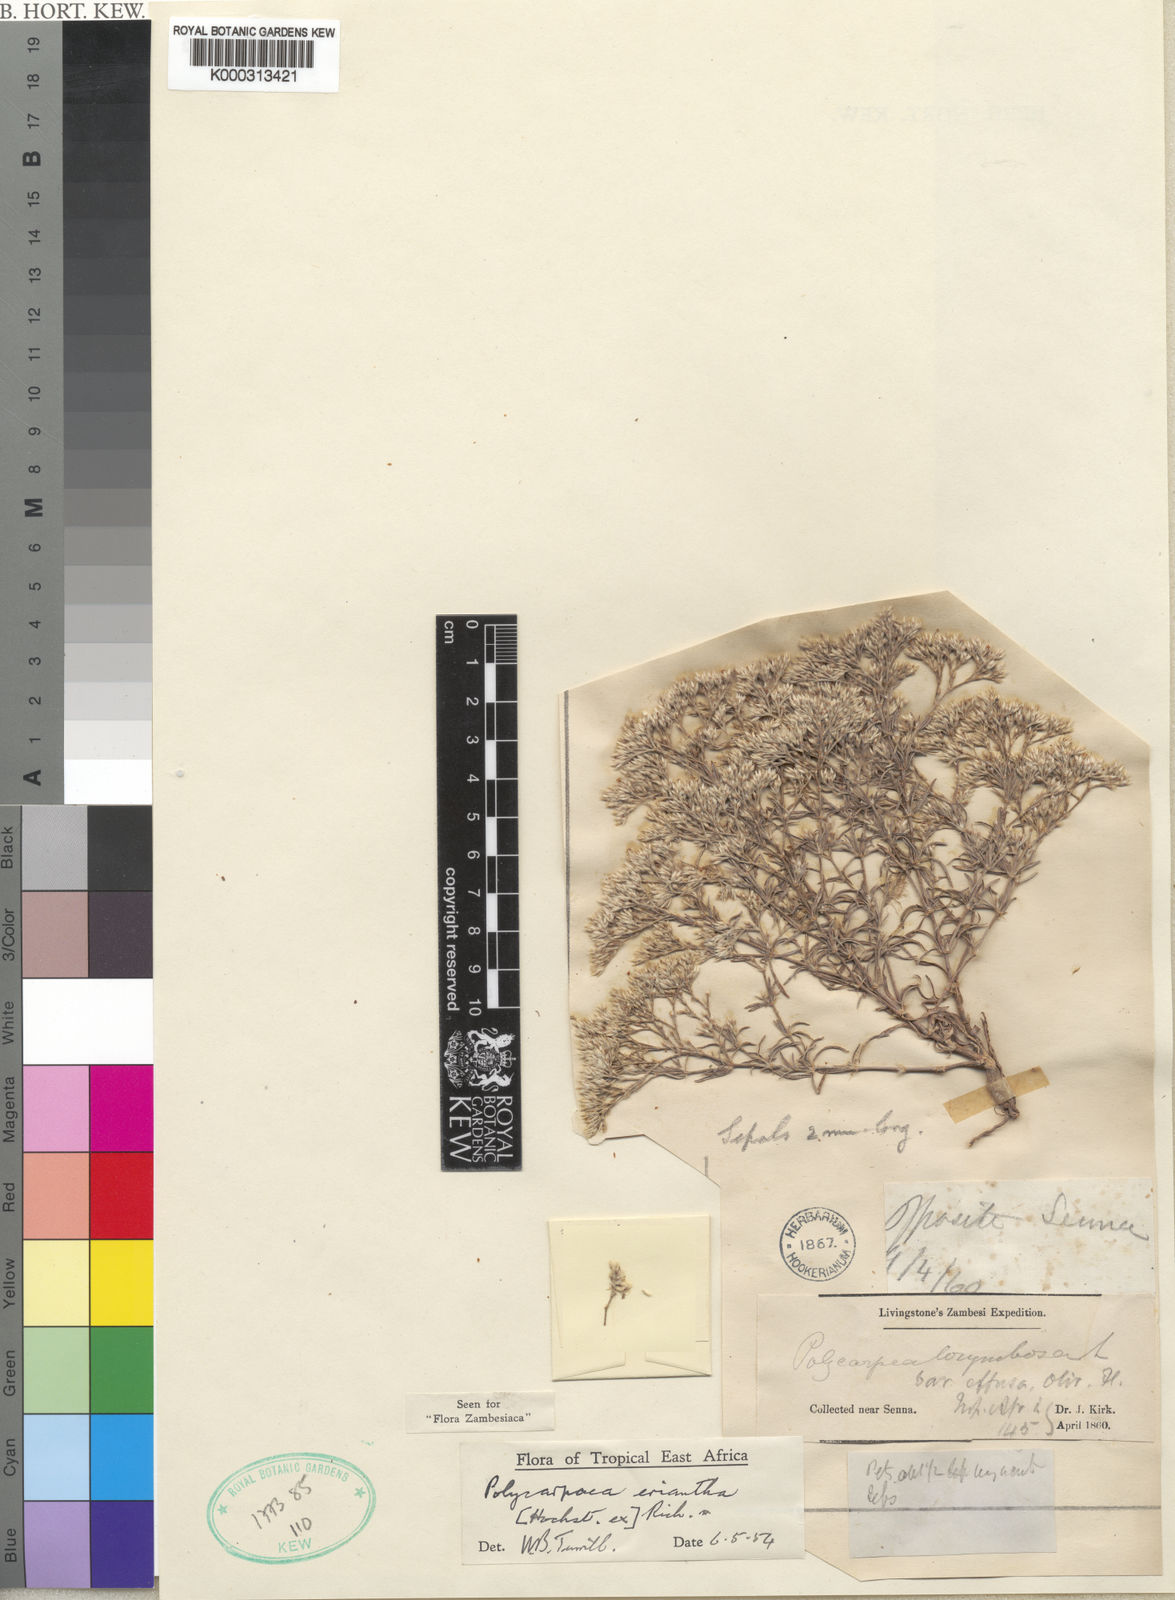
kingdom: Plantae
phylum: Tracheophyta
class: Magnoliopsida
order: Caryophyllales
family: Caryophyllaceae
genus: Polycarpaea
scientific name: Polycarpaea eriantha
